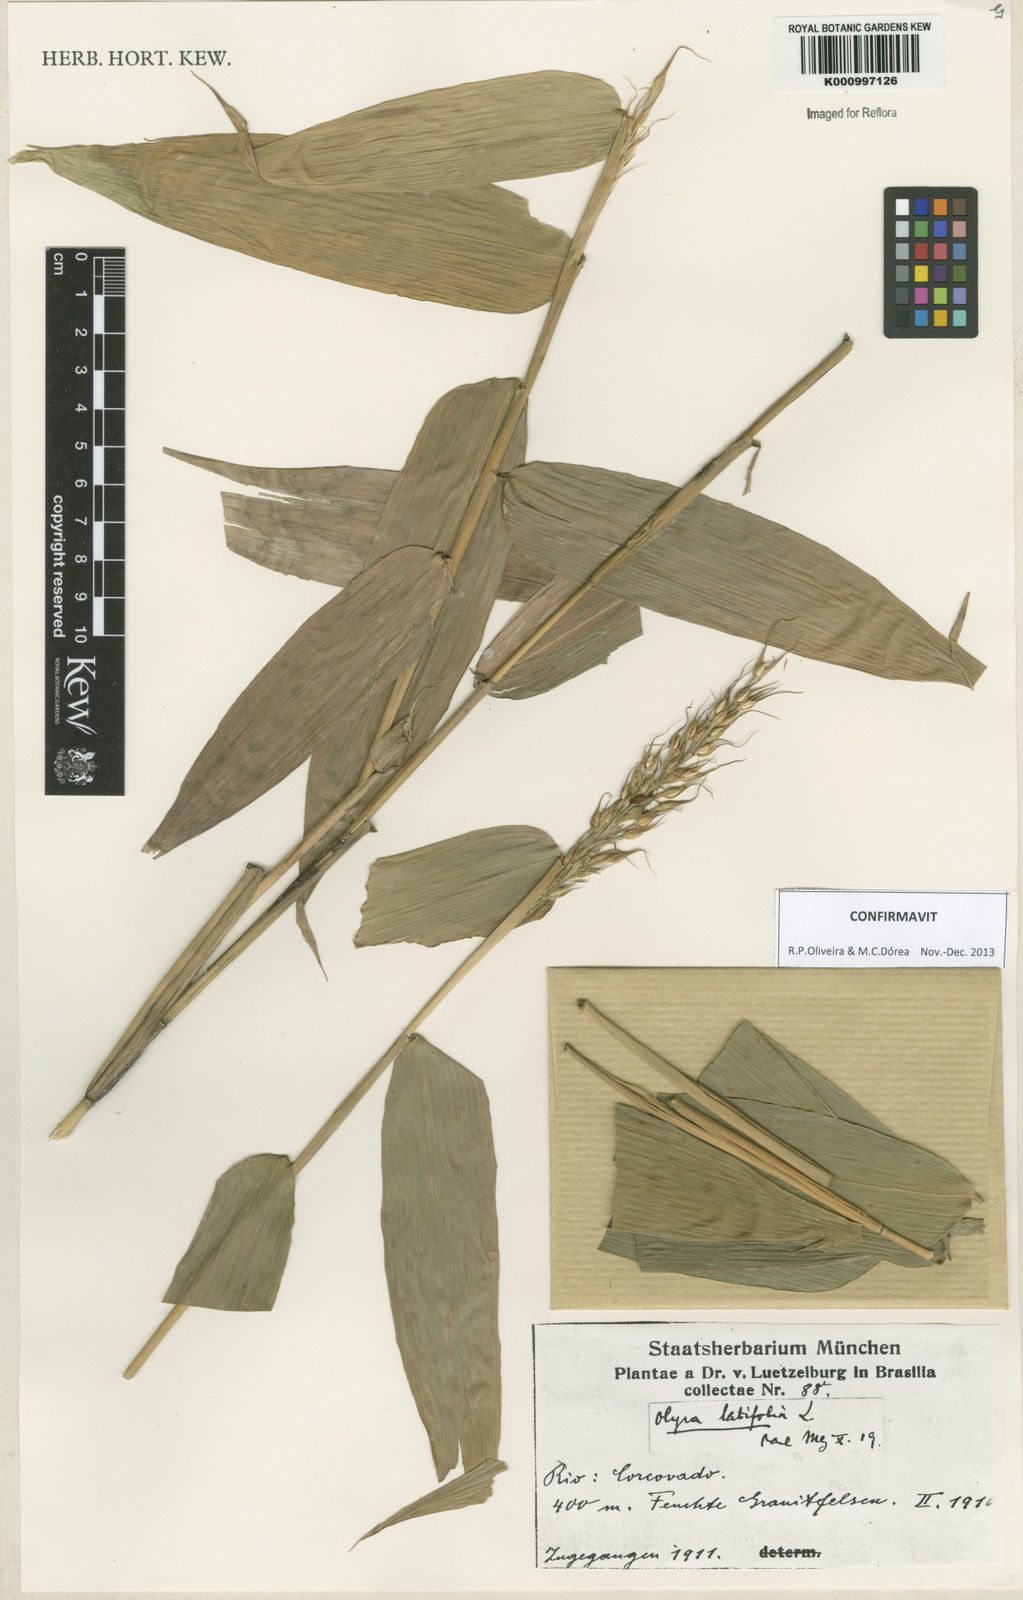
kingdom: Plantae
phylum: Tracheophyta
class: Liliopsida
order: Poales
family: Poaceae
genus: Olyra
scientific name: Olyra latifolia
